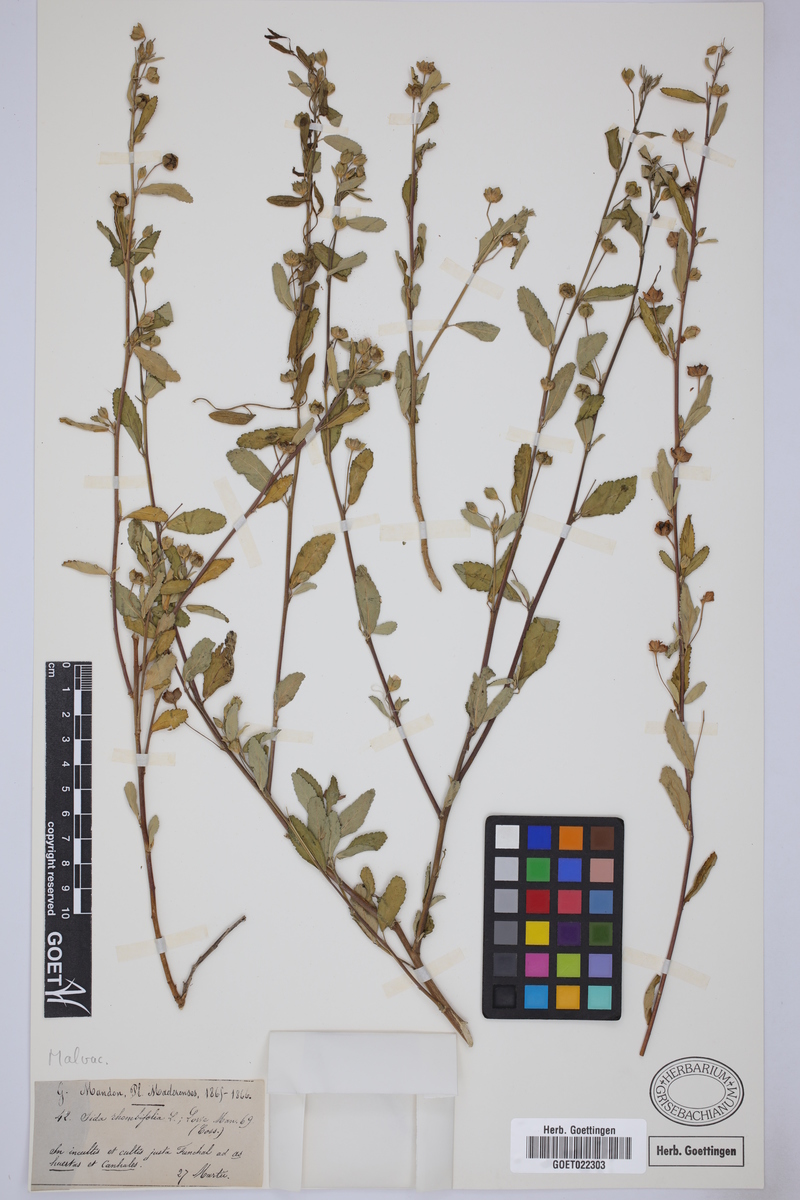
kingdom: Plantae
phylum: Tracheophyta
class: Magnoliopsida
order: Malvales
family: Malvaceae
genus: Sida
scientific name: Sida rhombifolia
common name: Queensland-hemp
